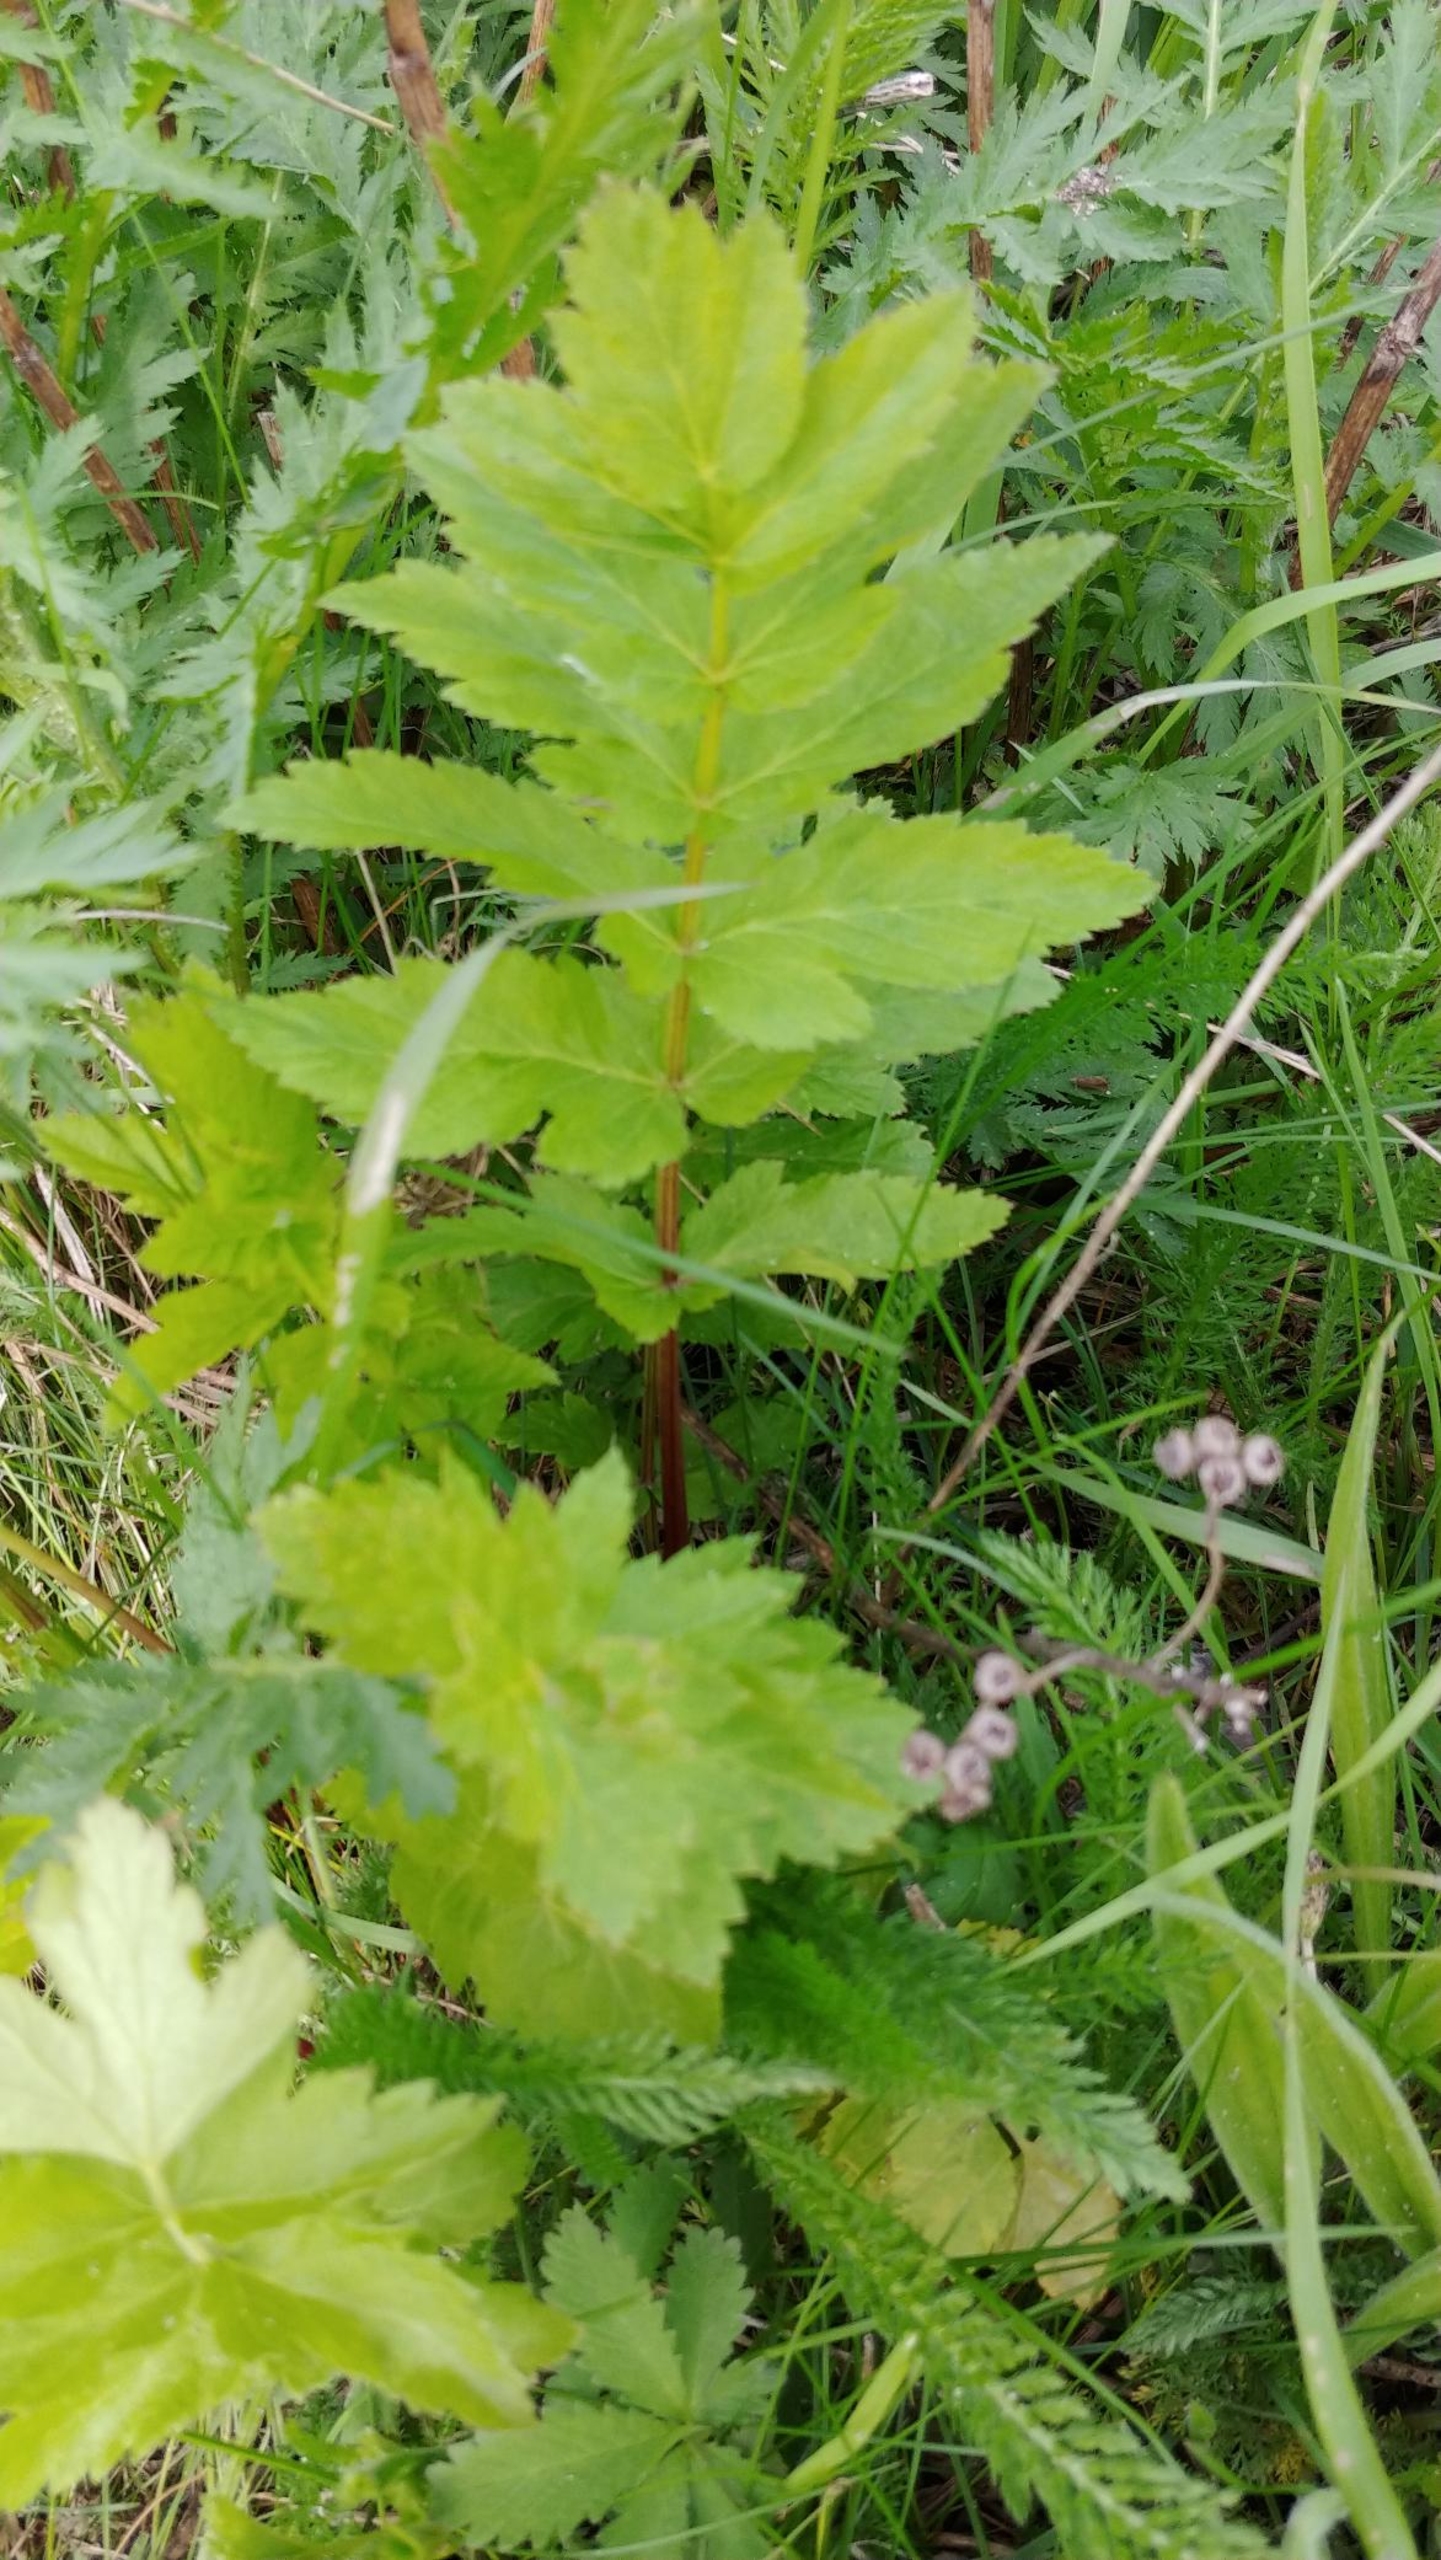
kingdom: Plantae
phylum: Tracheophyta
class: Magnoliopsida
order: Apiales
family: Apiaceae
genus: Pastinaca
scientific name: Pastinaca sativa
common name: Pastinak
